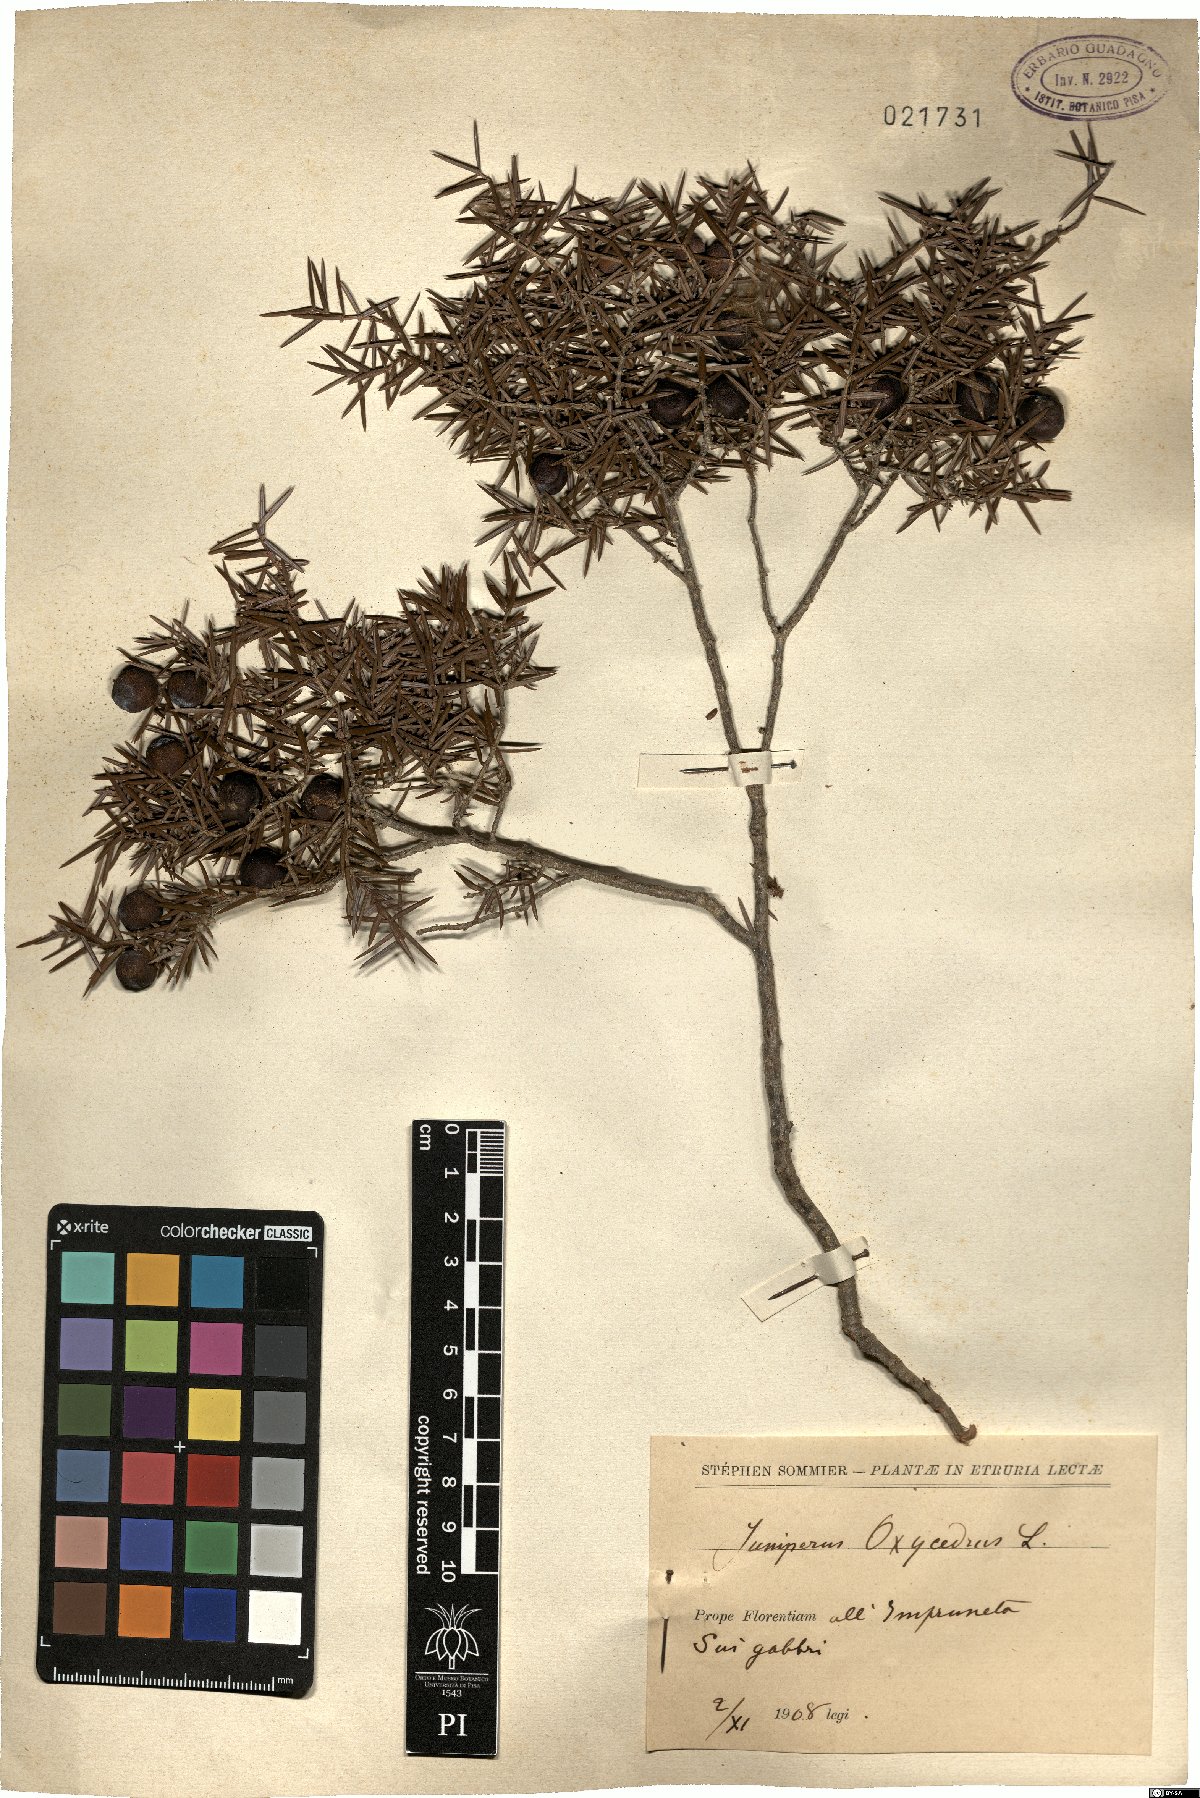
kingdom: Plantae
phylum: Tracheophyta
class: Pinopsida
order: Pinales
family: Cupressaceae
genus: Juniperus
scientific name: Juniperus oxycedrus
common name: Prickly juniper
